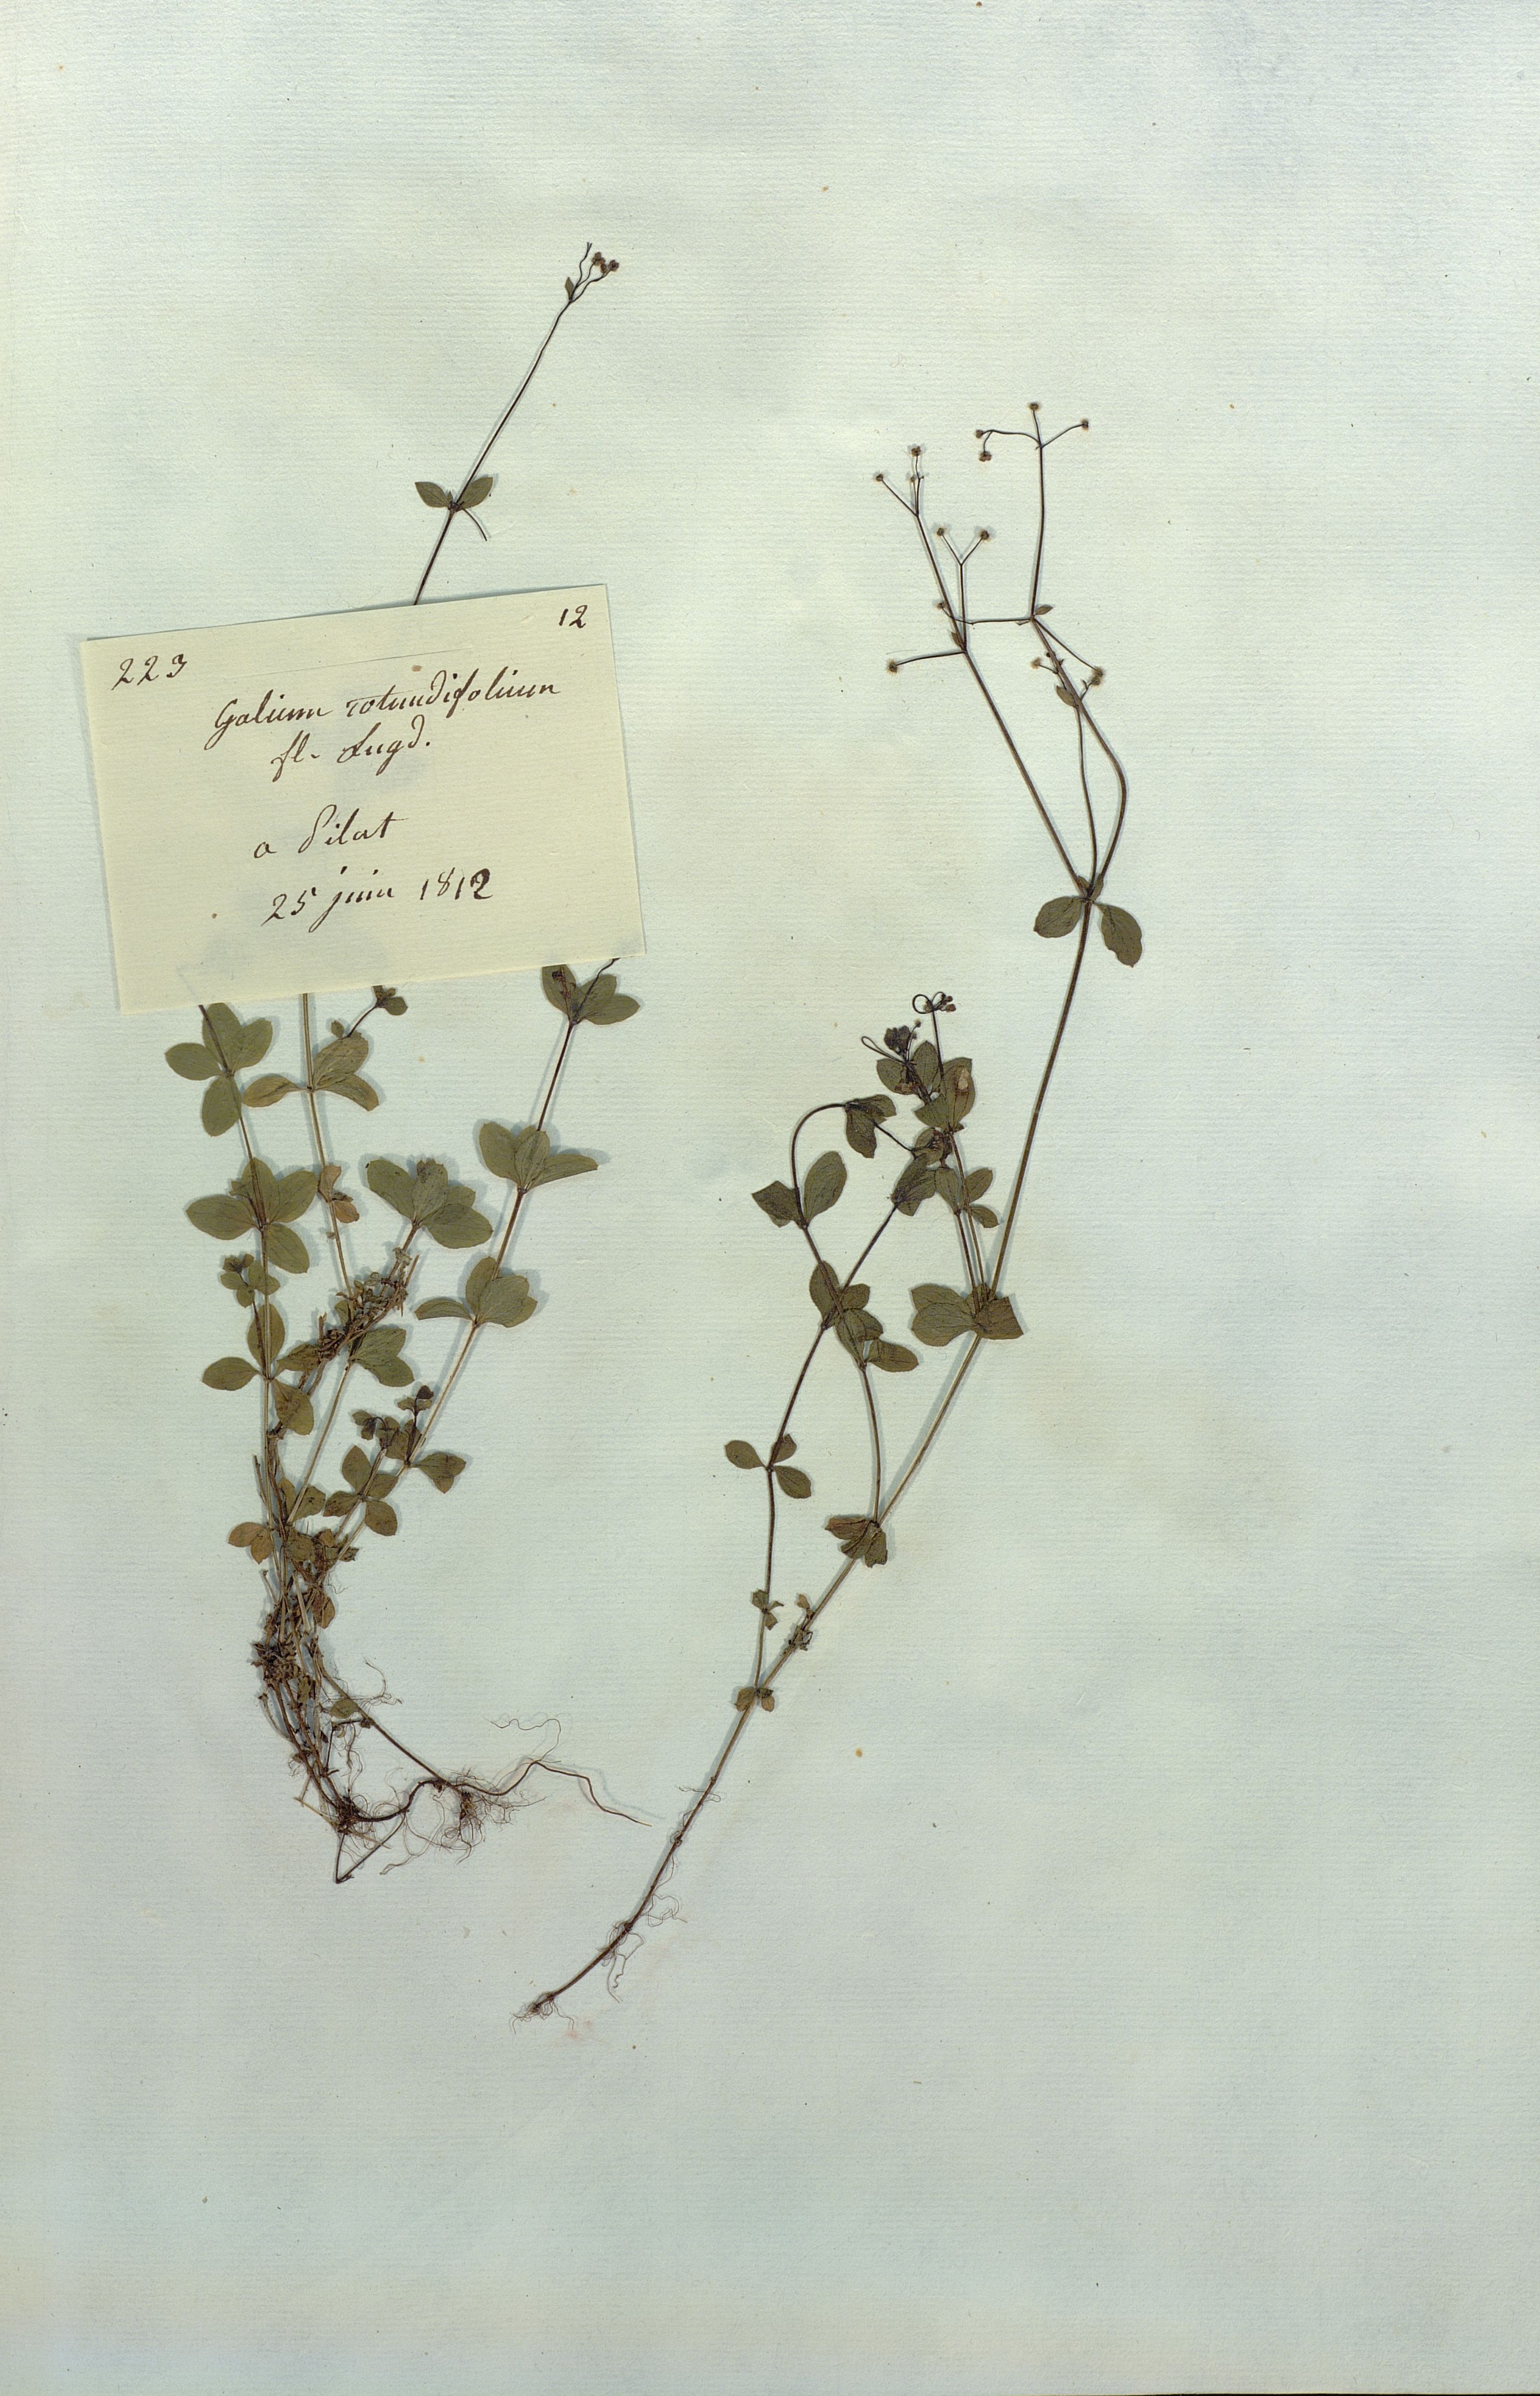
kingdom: Plantae
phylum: Tracheophyta
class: Magnoliopsida
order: Gentianales
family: Rubiaceae
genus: Galium
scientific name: Galium rotundifolium
